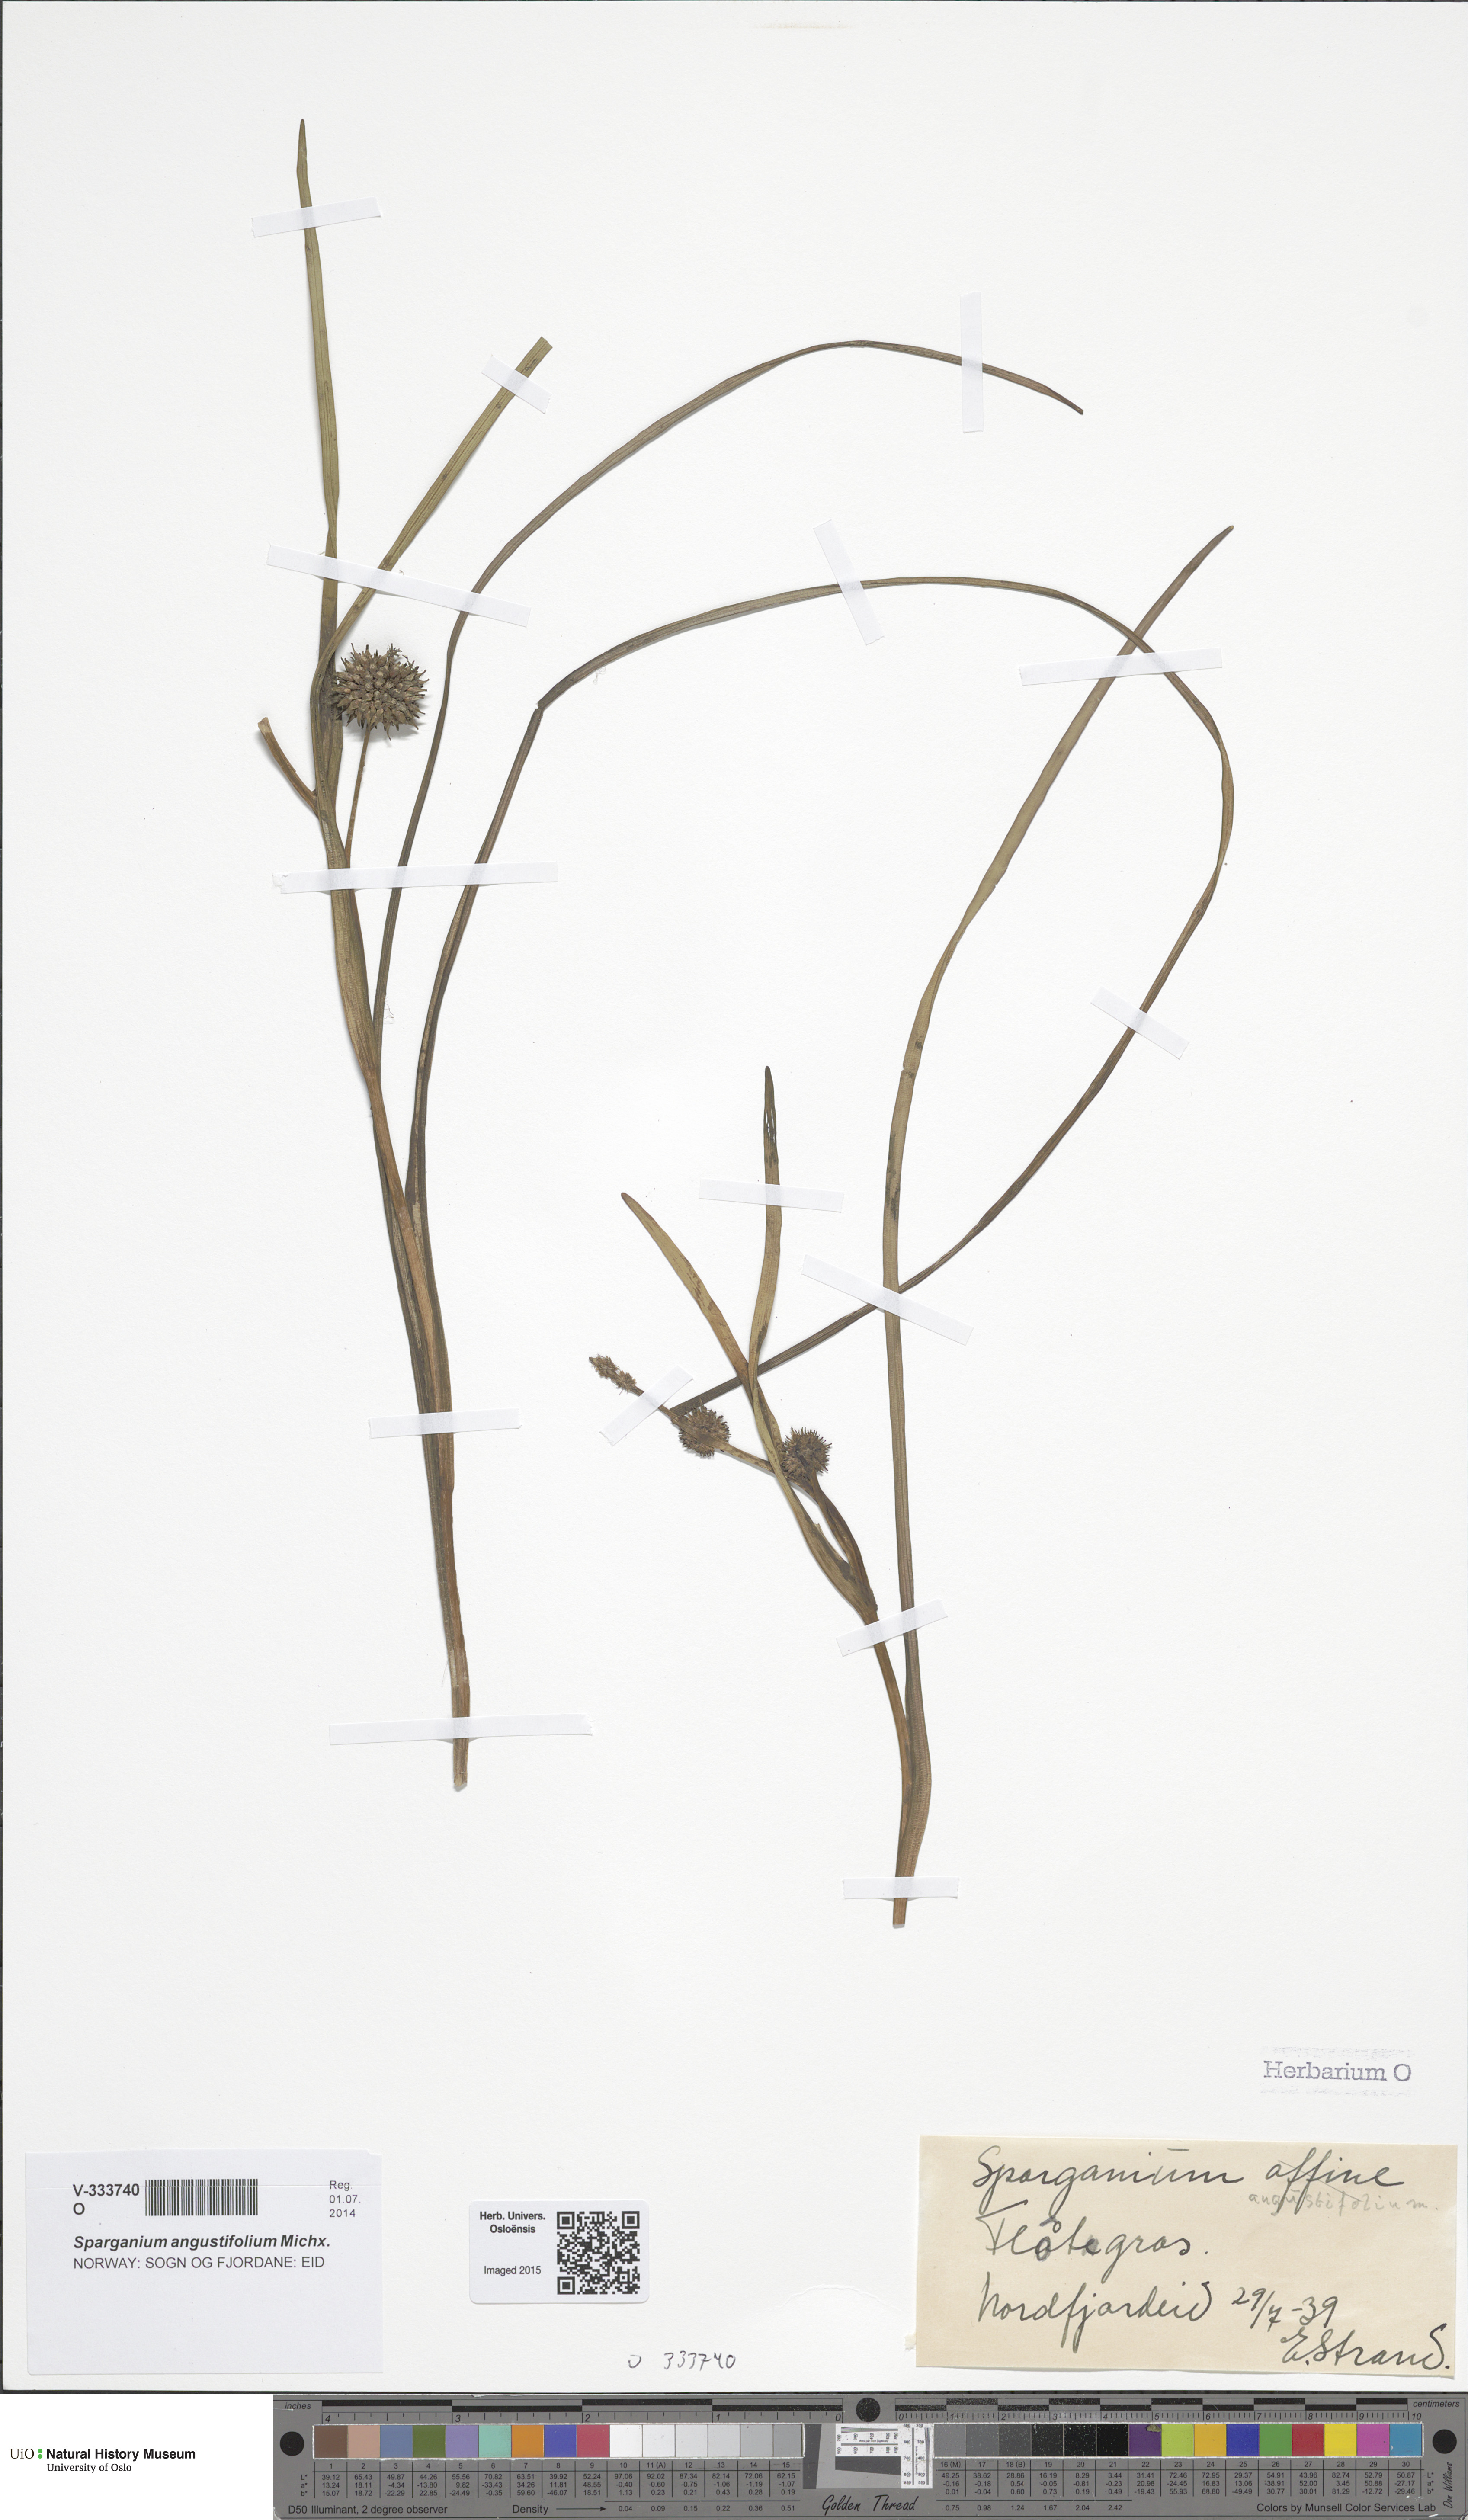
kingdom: Plantae
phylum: Tracheophyta
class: Liliopsida
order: Poales
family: Typhaceae
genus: Sparganium
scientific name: Sparganium angustifolium
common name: Floating bur-reed
